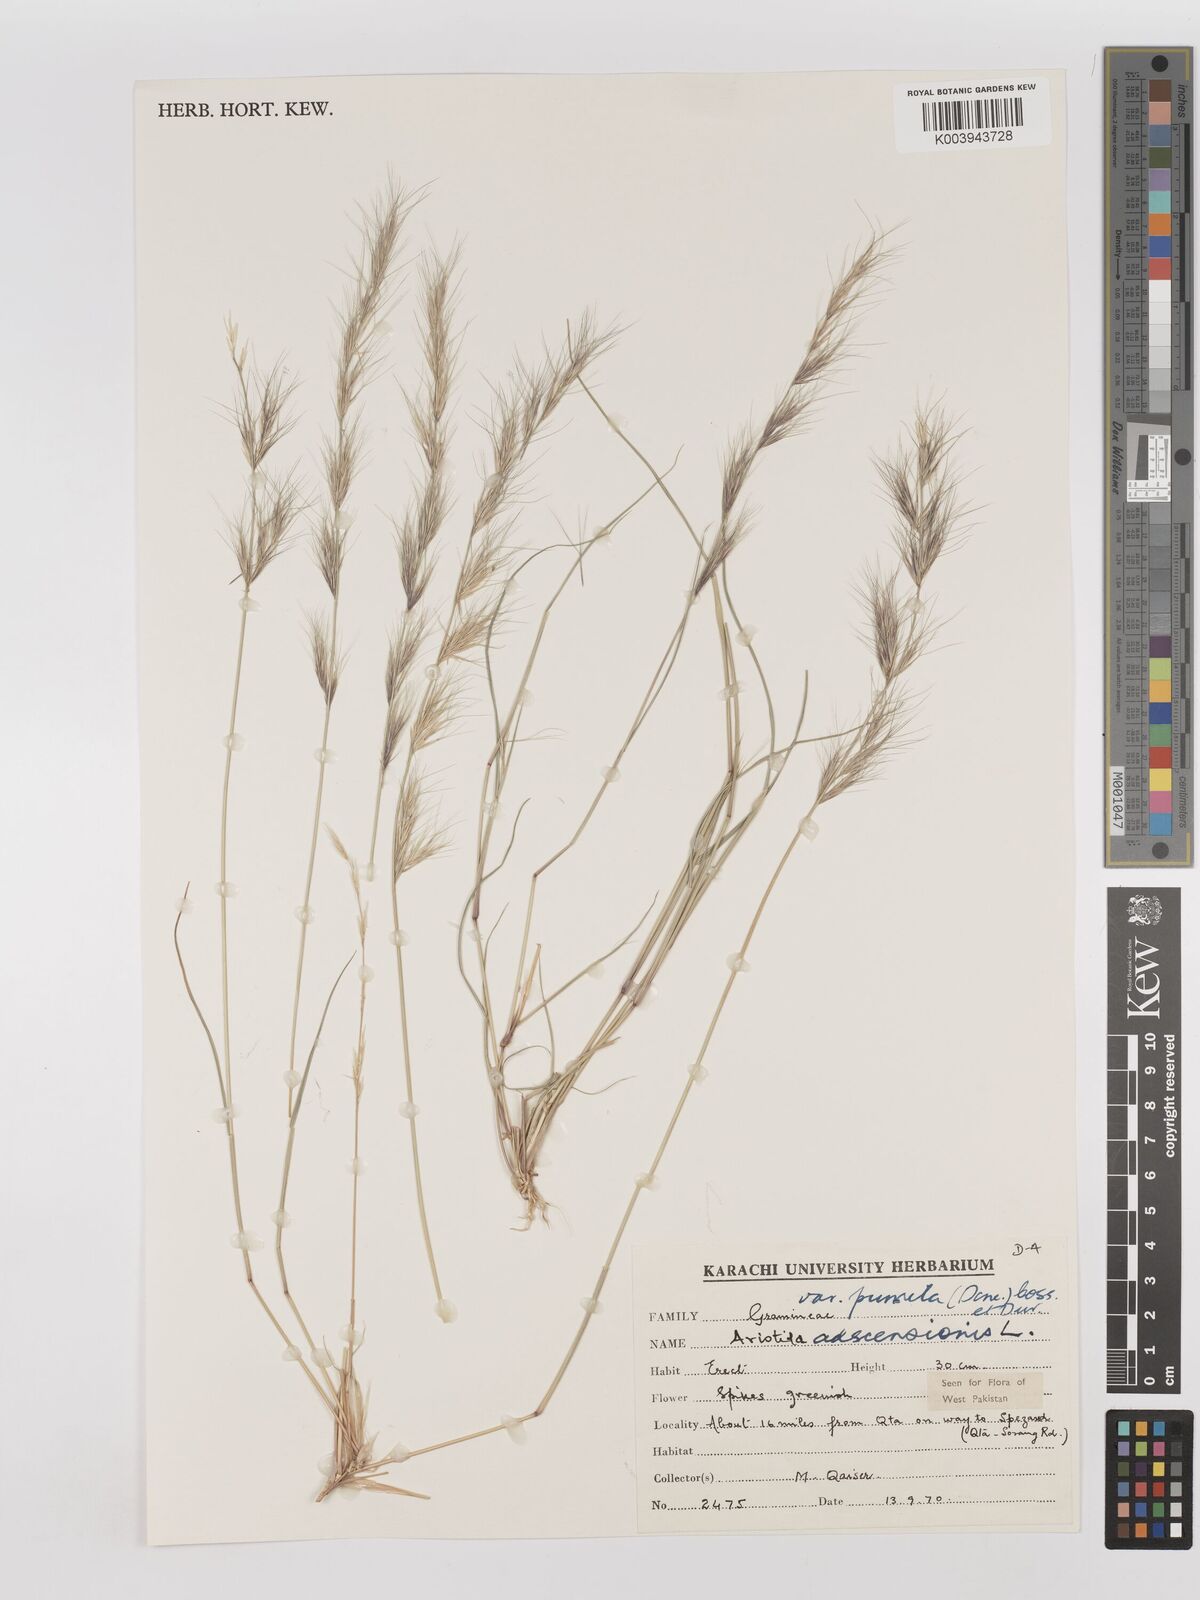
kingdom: Plantae
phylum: Tracheophyta
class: Liliopsida
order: Poales
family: Poaceae
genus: Aristida
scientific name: Aristida adscensionis
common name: Sixweeks threeawn
